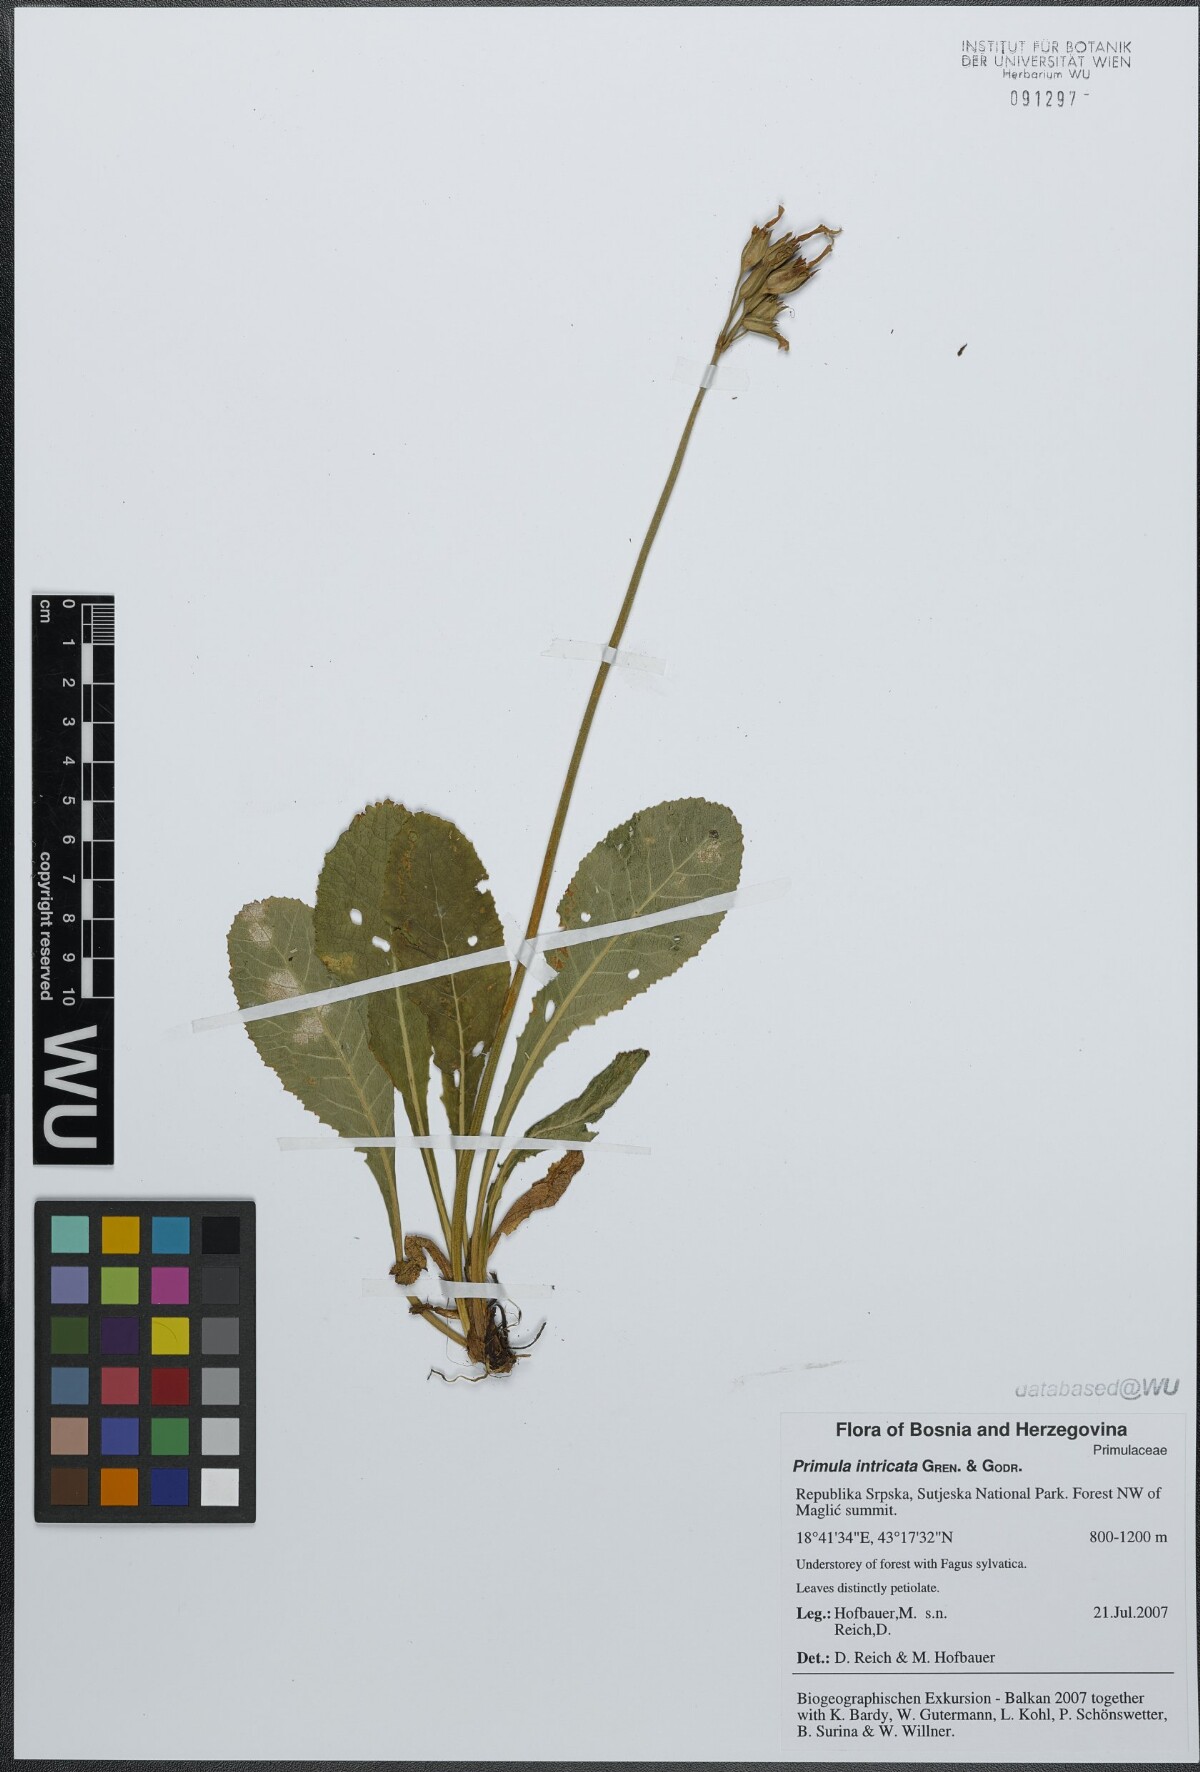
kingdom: Plantae
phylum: Tracheophyta
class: Magnoliopsida
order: Ericales
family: Primulaceae
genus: Primula
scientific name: Primula intricata
